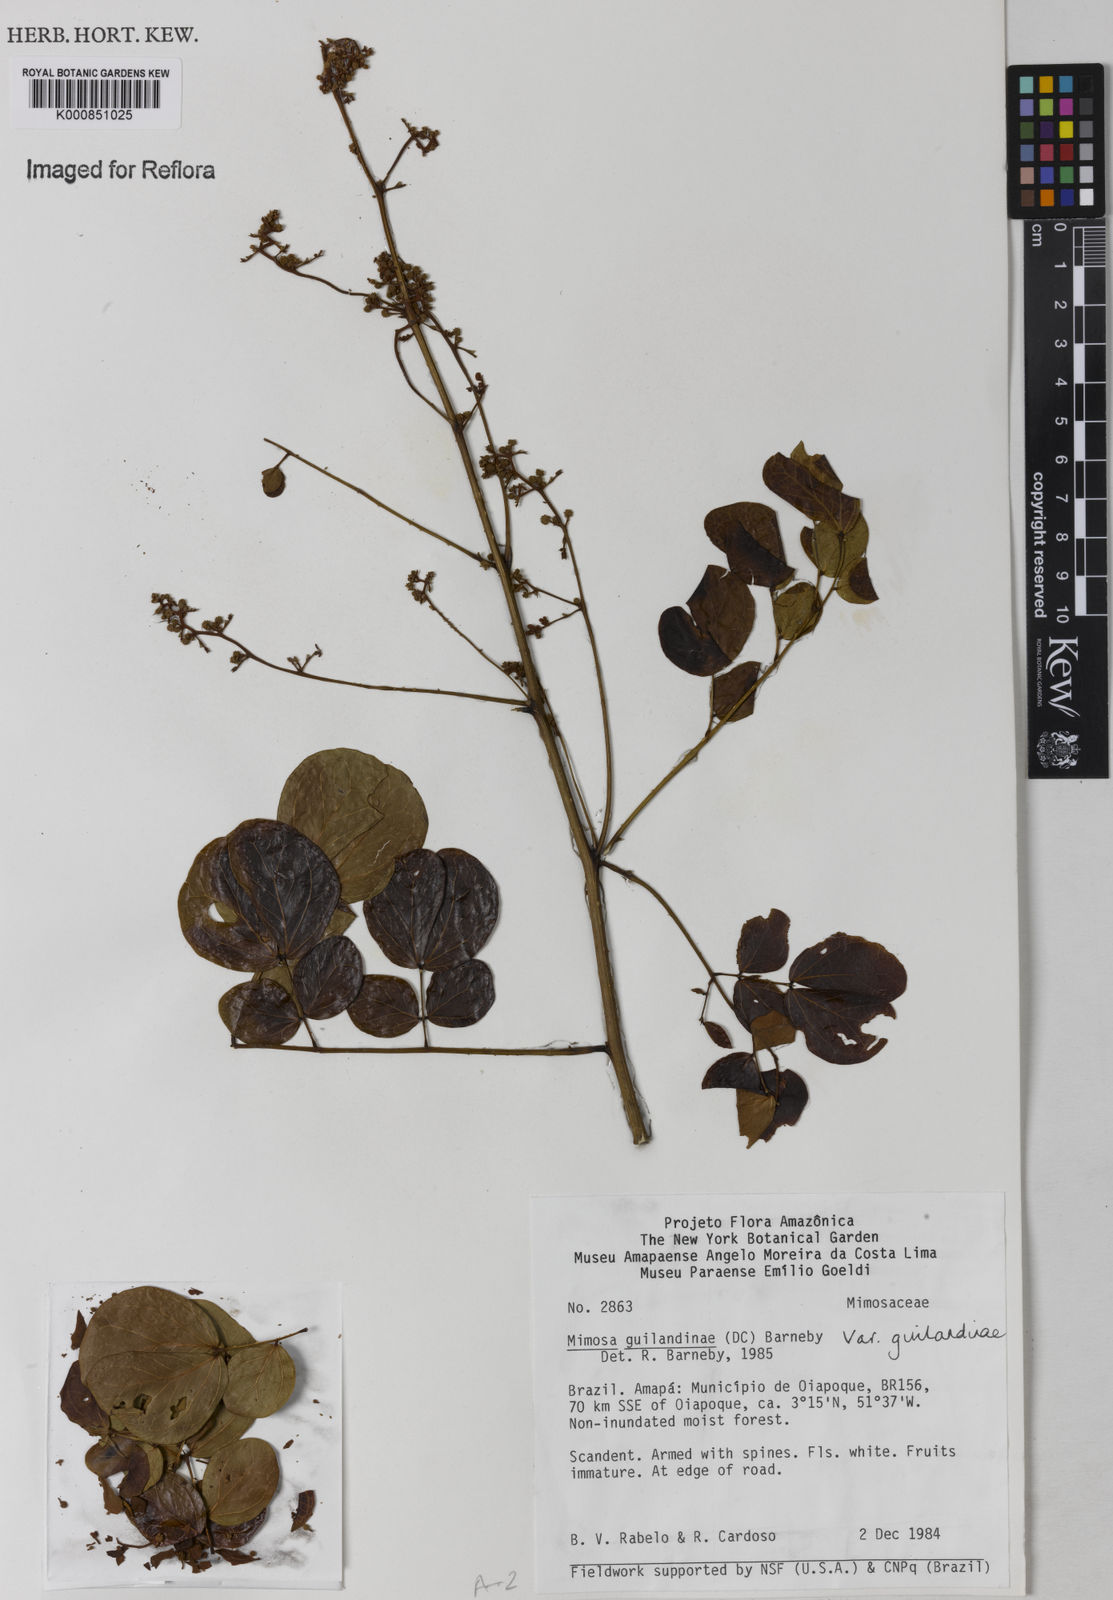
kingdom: Plantae
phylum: Tracheophyta
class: Magnoliopsida
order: Fabales
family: Fabaceae
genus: Mimosa
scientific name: Mimosa guilandinae
